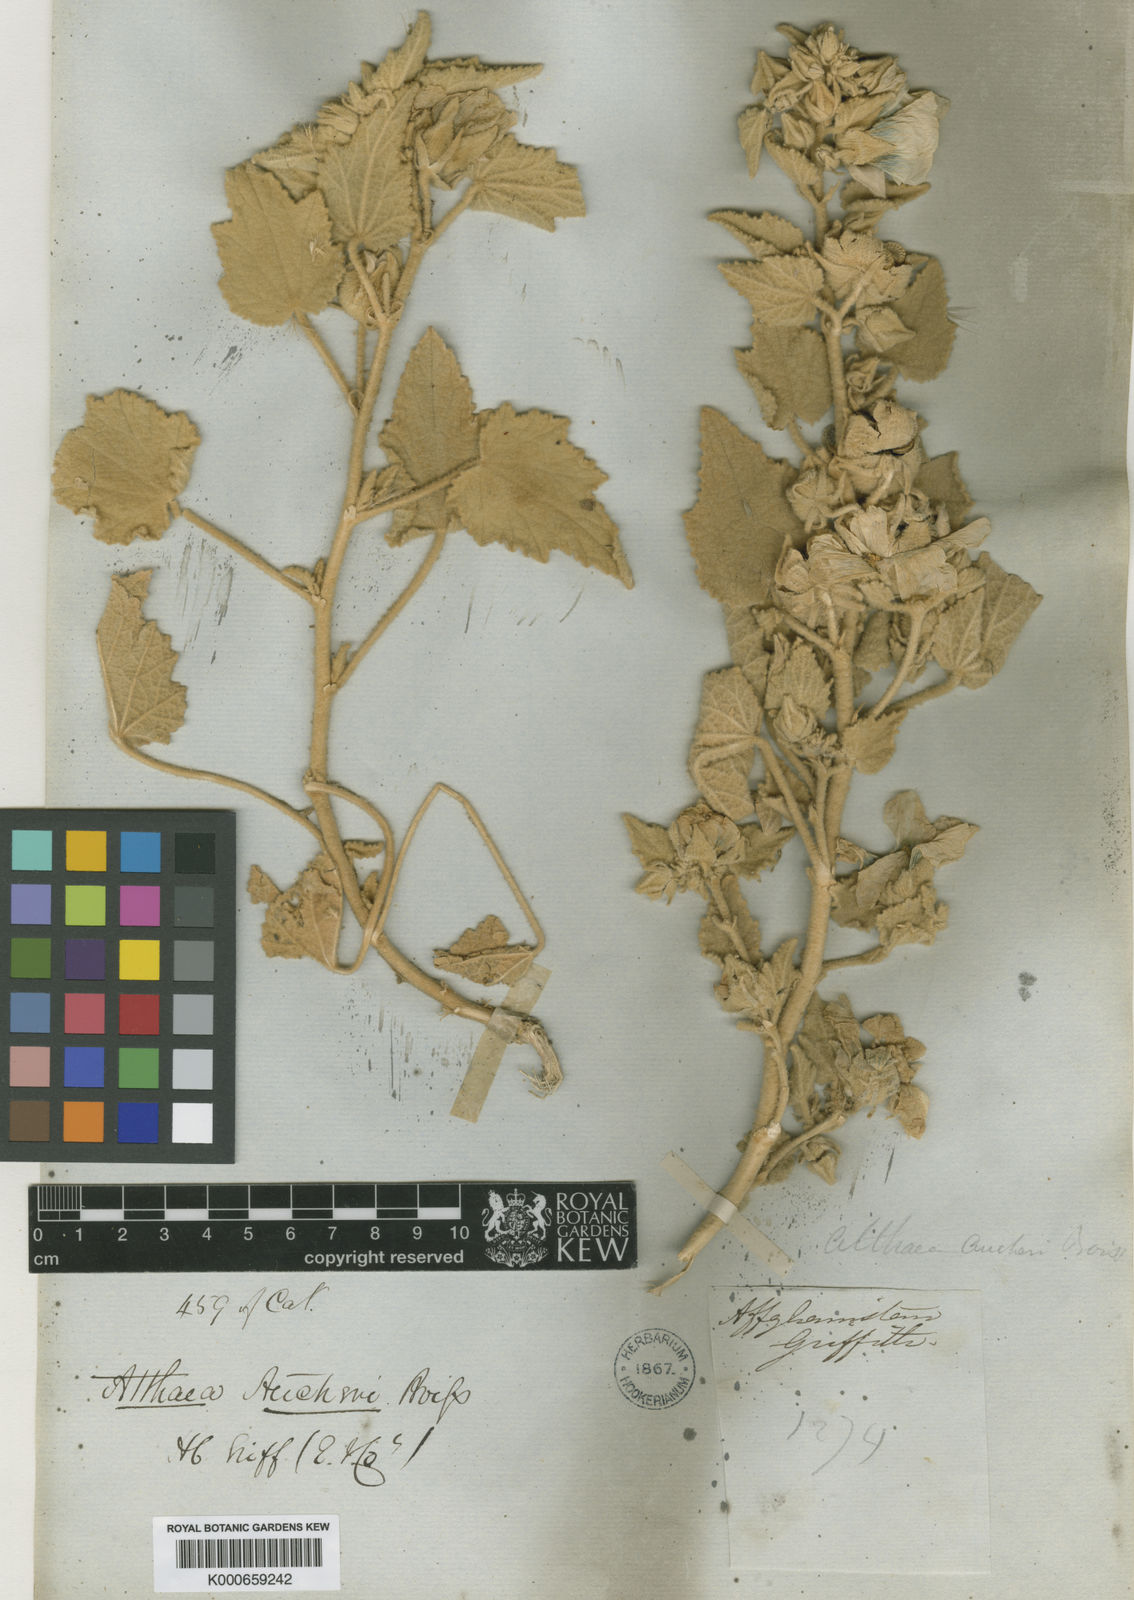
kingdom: Plantae
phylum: Tracheophyta
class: Magnoliopsida
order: Malvales
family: Malvaceae
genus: Alcea
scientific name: Alcea aucheri
